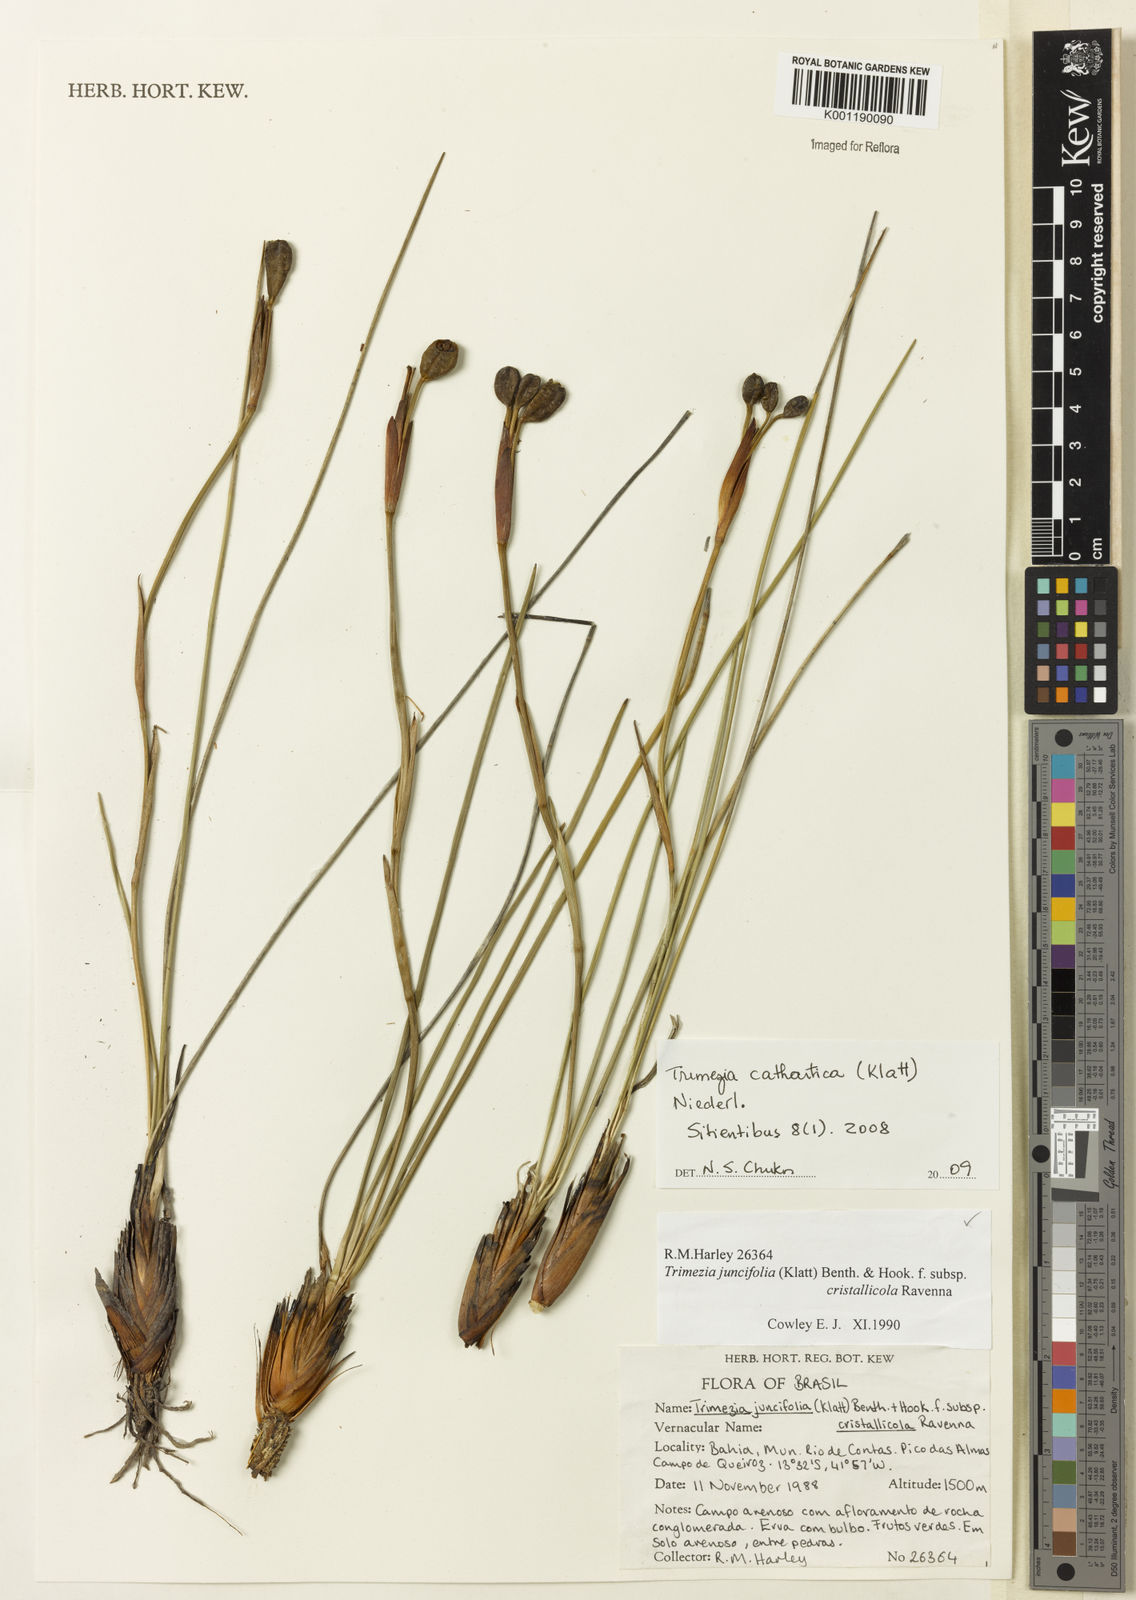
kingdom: Plantae
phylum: Tracheophyta
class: Liliopsida
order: Asparagales
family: Iridaceae
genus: Trimezia
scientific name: Trimezia cathartica
